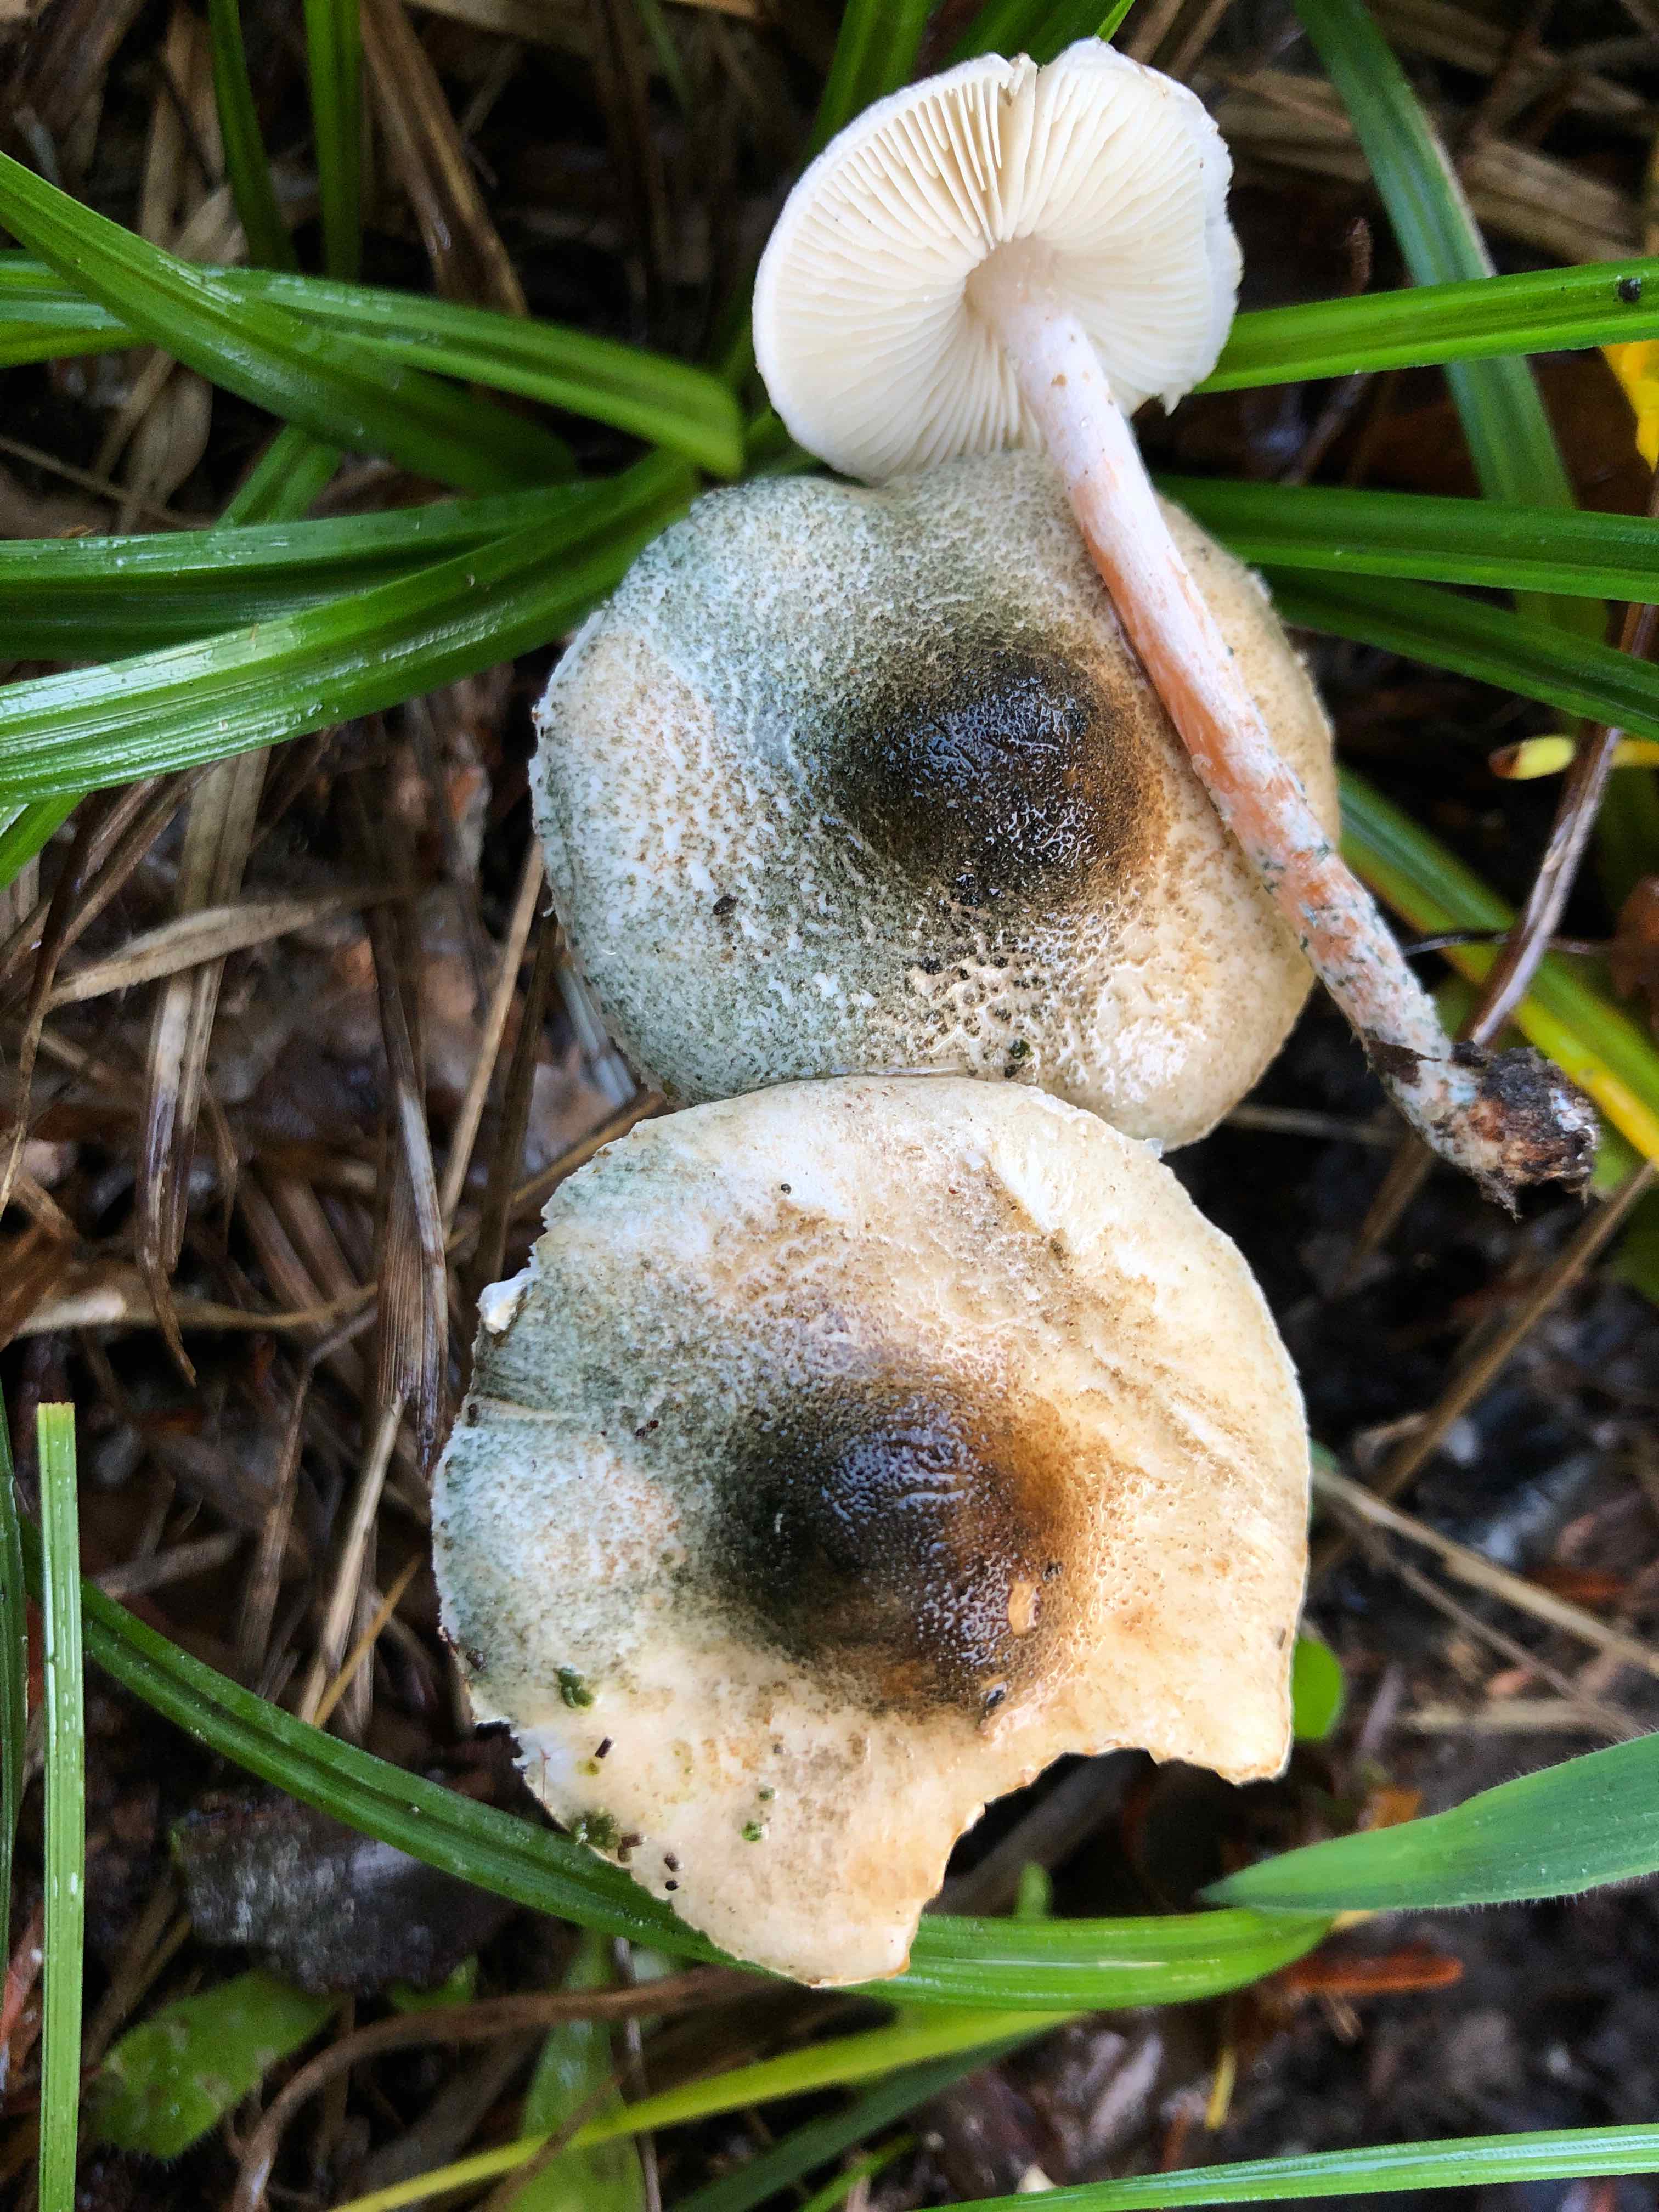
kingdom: Fungi
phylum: Basidiomycota
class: Agaricomycetes
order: Agaricales
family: Agaricaceae
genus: Lepiota
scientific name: Lepiota grangei
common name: grønskællet parasolhat
